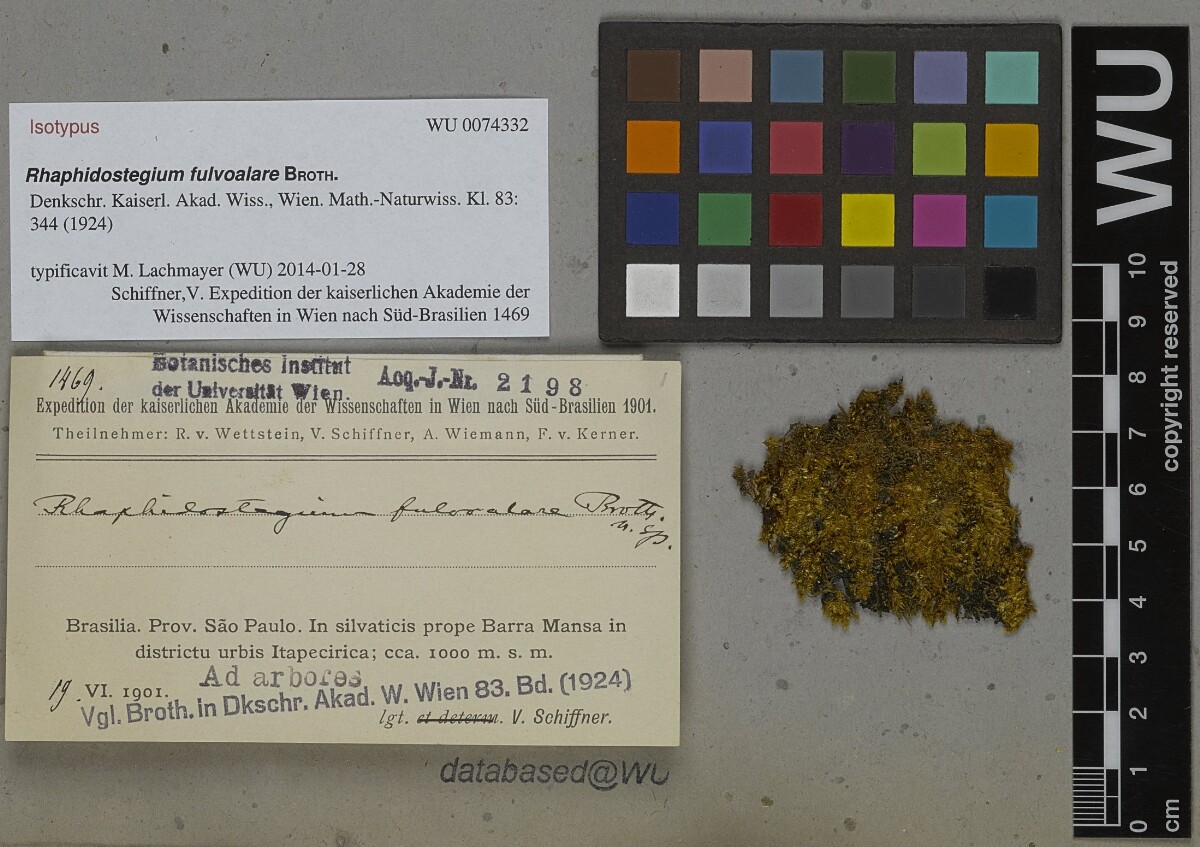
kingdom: Plantae
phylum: Bryophyta
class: Bryopsida
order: Hypnales
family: Sematophyllaceae
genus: Rhaphidostegium
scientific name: Rhaphidostegium fulvoalare
